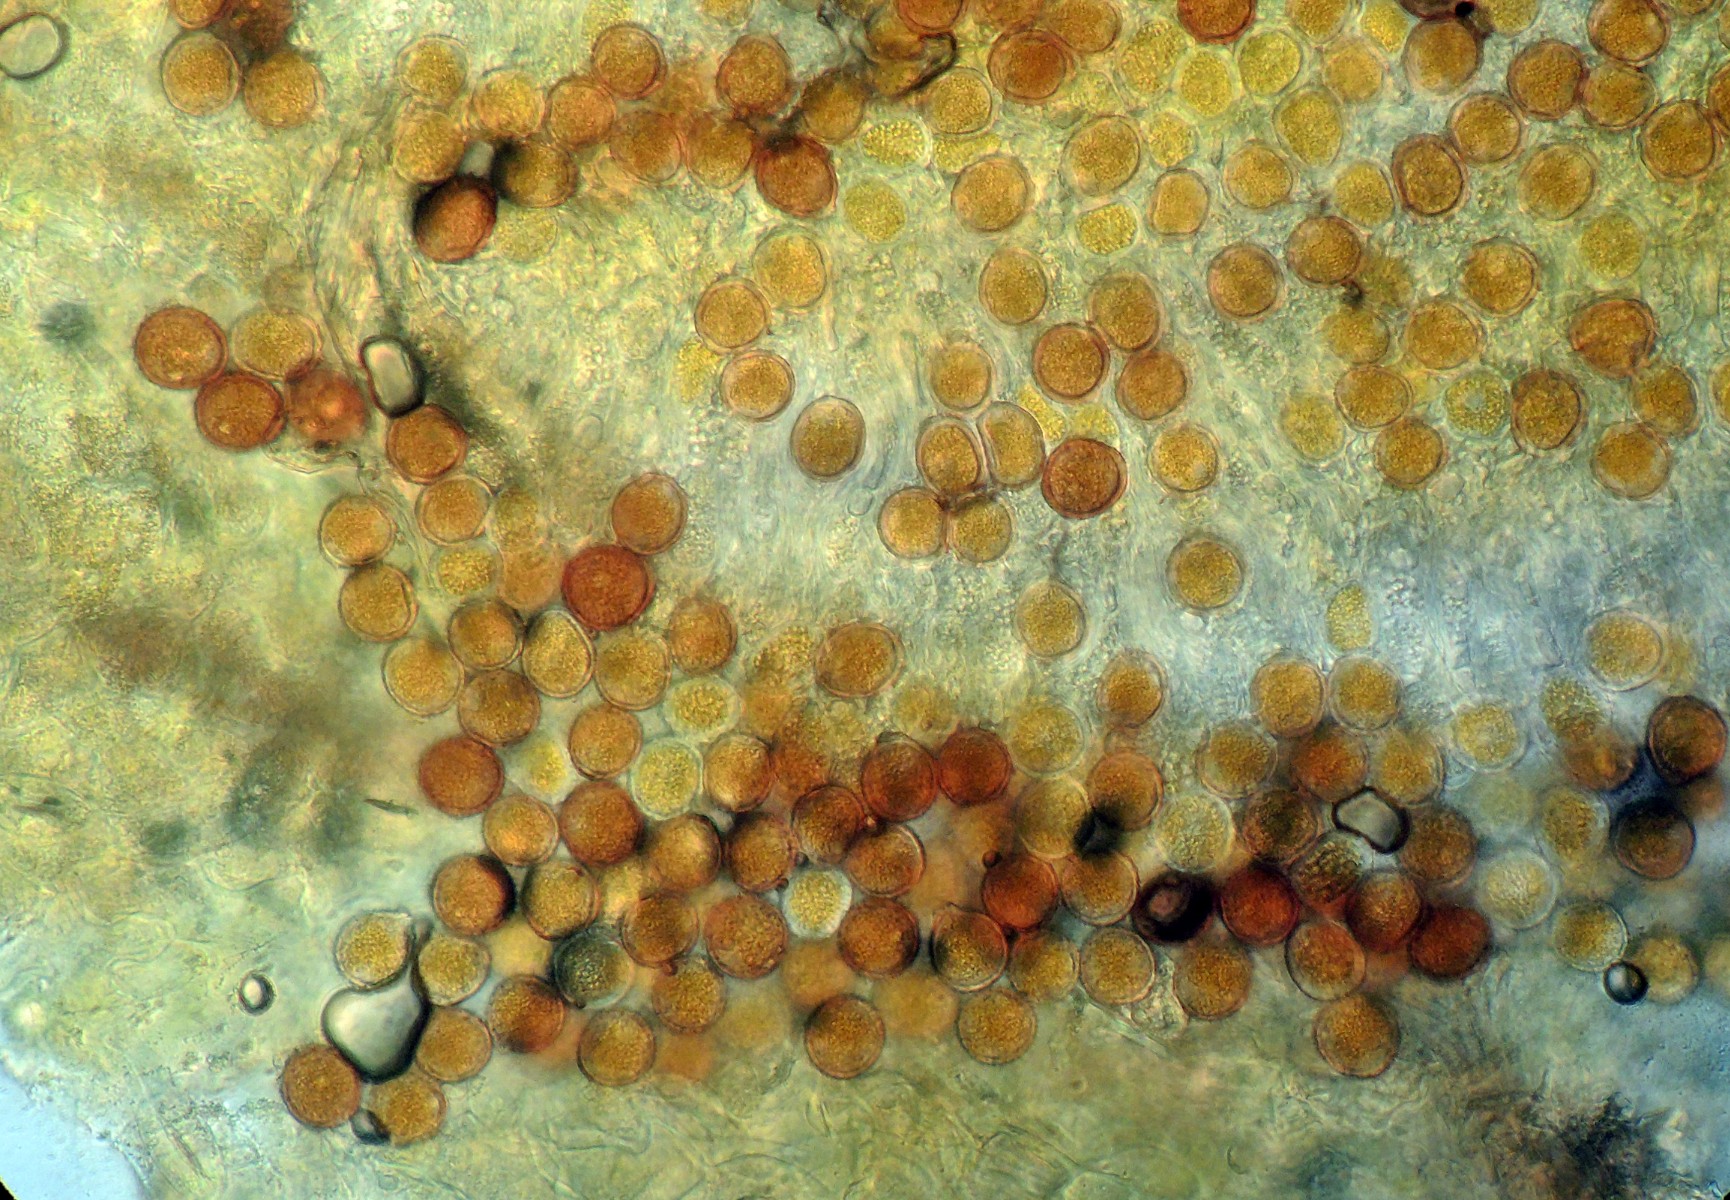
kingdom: Fungi
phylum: Basidiomycota
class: Pucciniomycetes
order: Pucciniales
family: Pucciniaceae
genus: Puccinia
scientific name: Puccinia punctata
